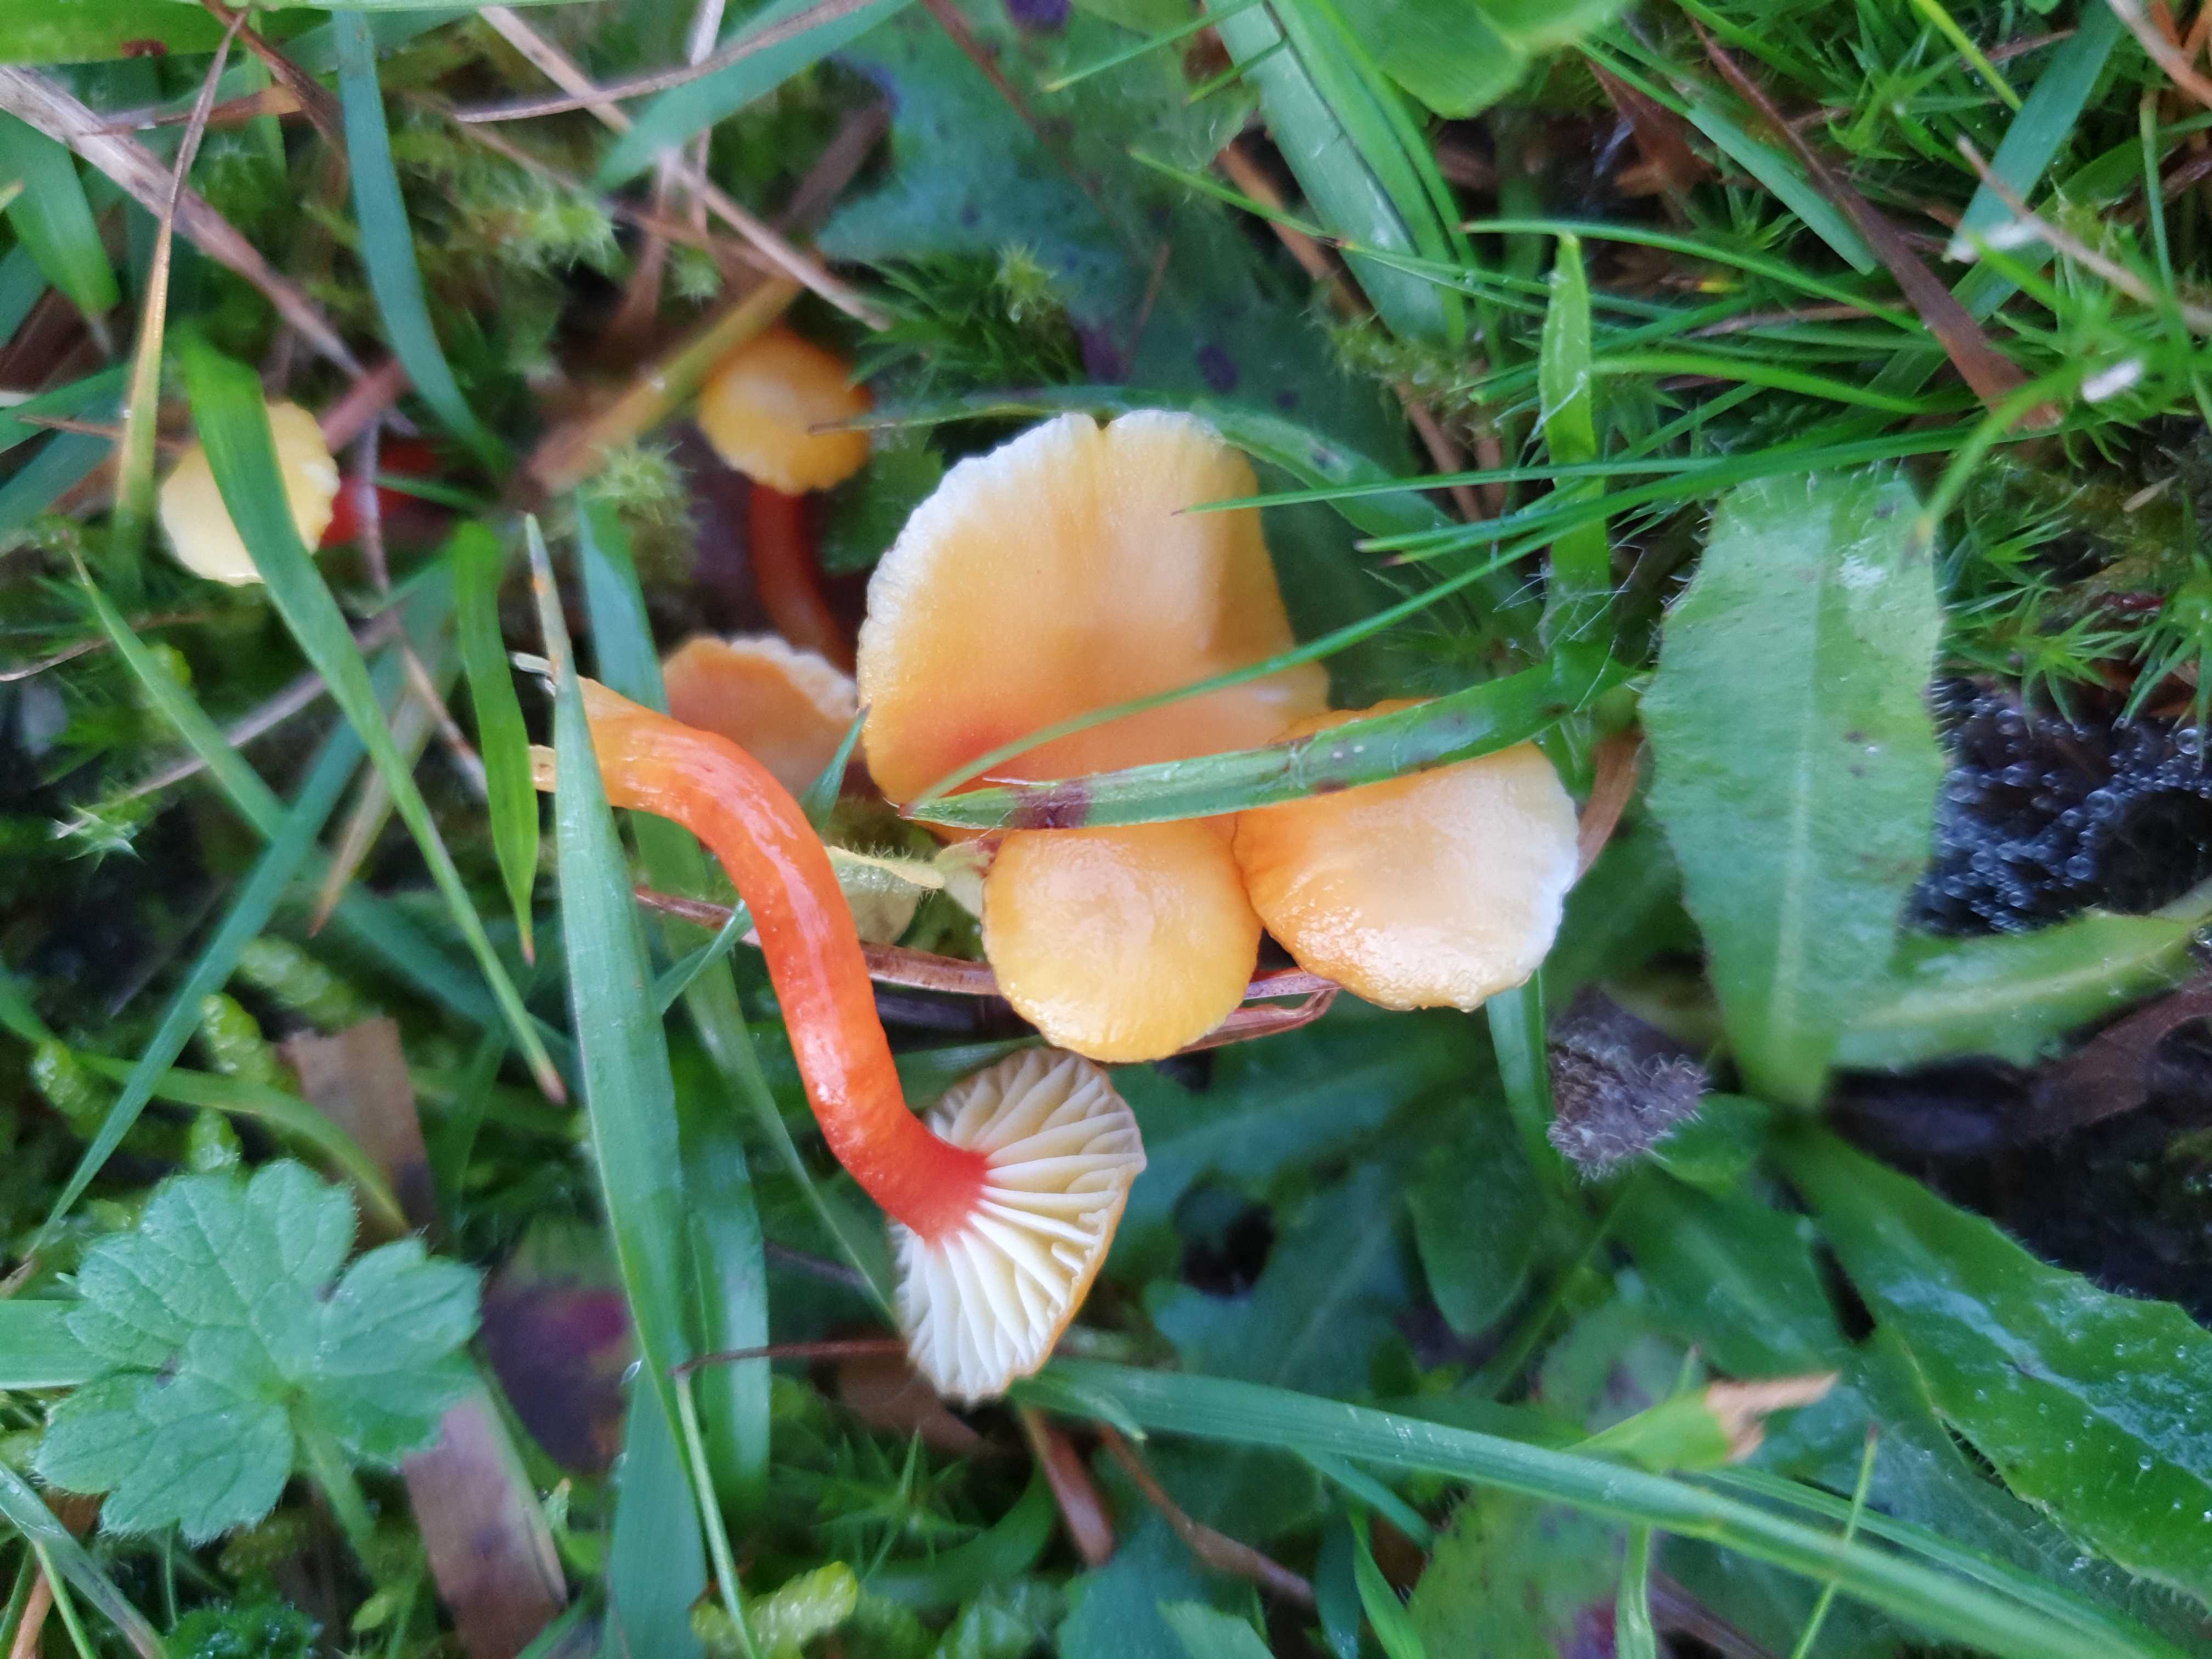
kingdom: Fungi
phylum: Basidiomycota
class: Agaricomycetes
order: Agaricales
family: Hygrophoraceae
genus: Hygrocybe
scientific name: Hygrocybe insipida
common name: liden vokshat
